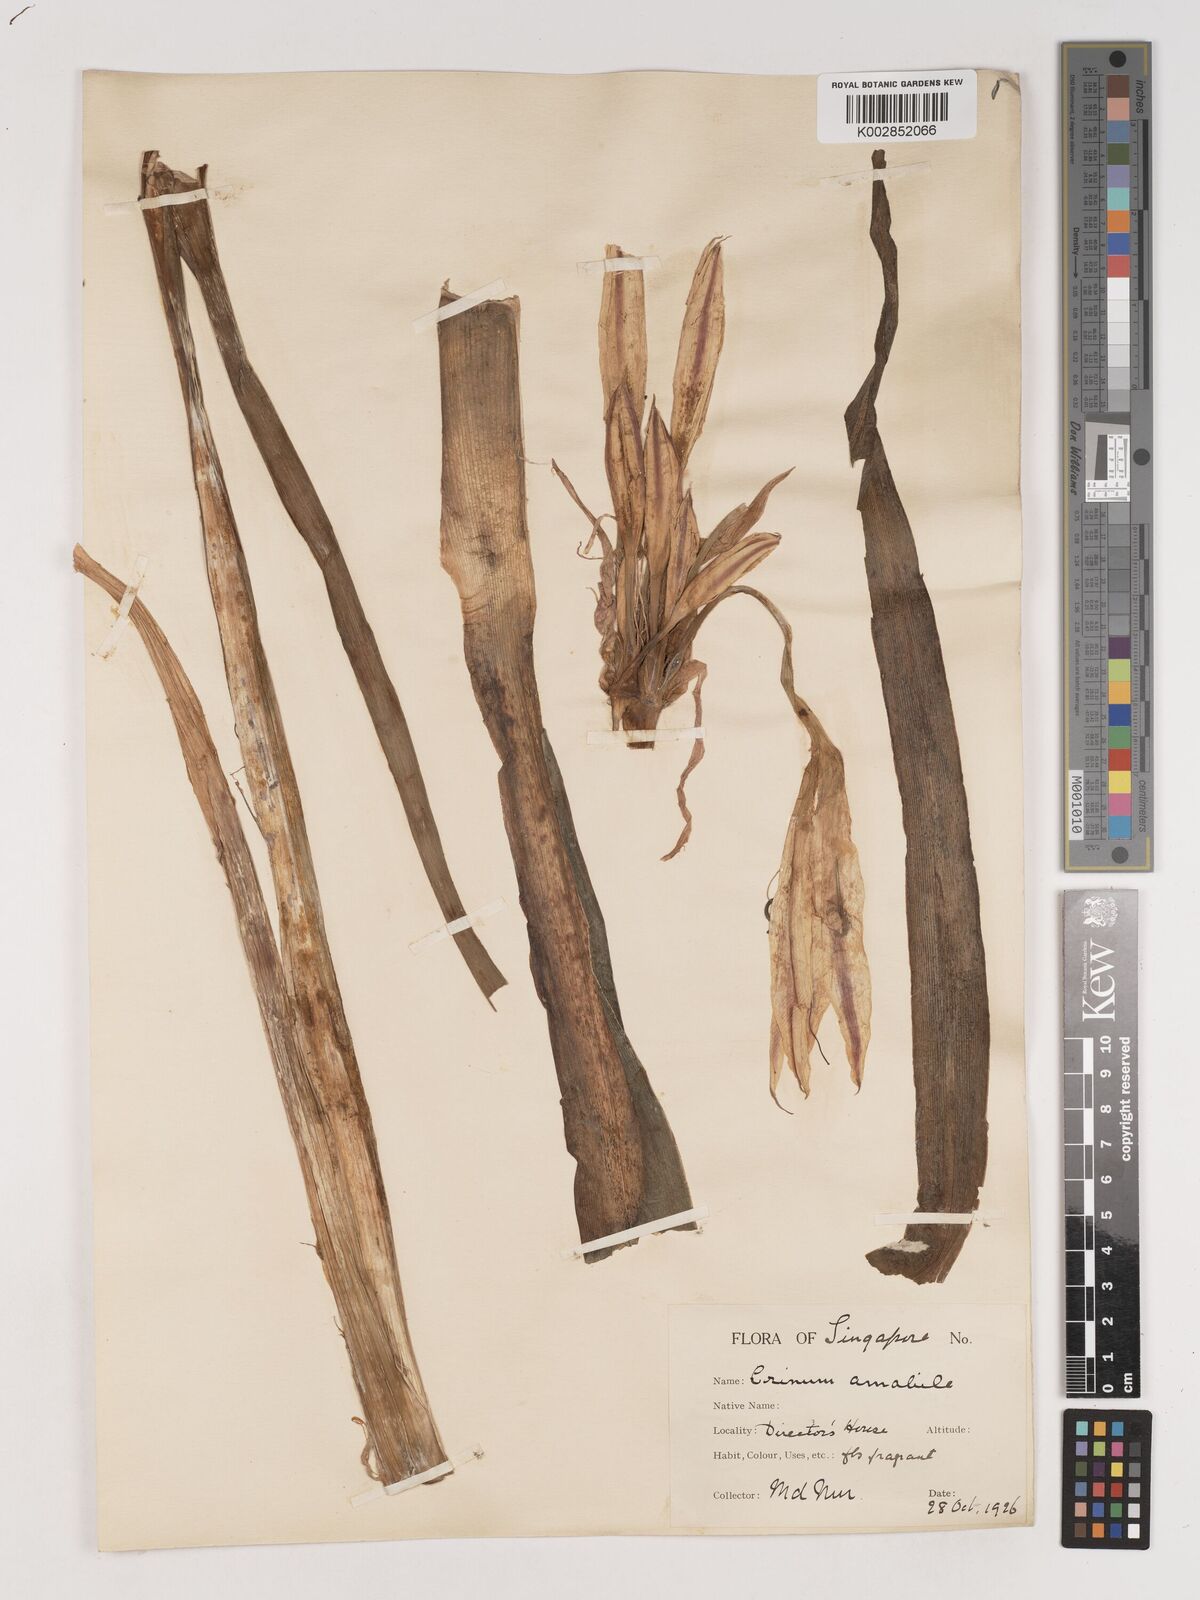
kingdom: Plantae
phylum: Tracheophyta
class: Liliopsida
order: Asparagales
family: Amaryllidaceae
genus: Crinum
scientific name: Crinum amabile
